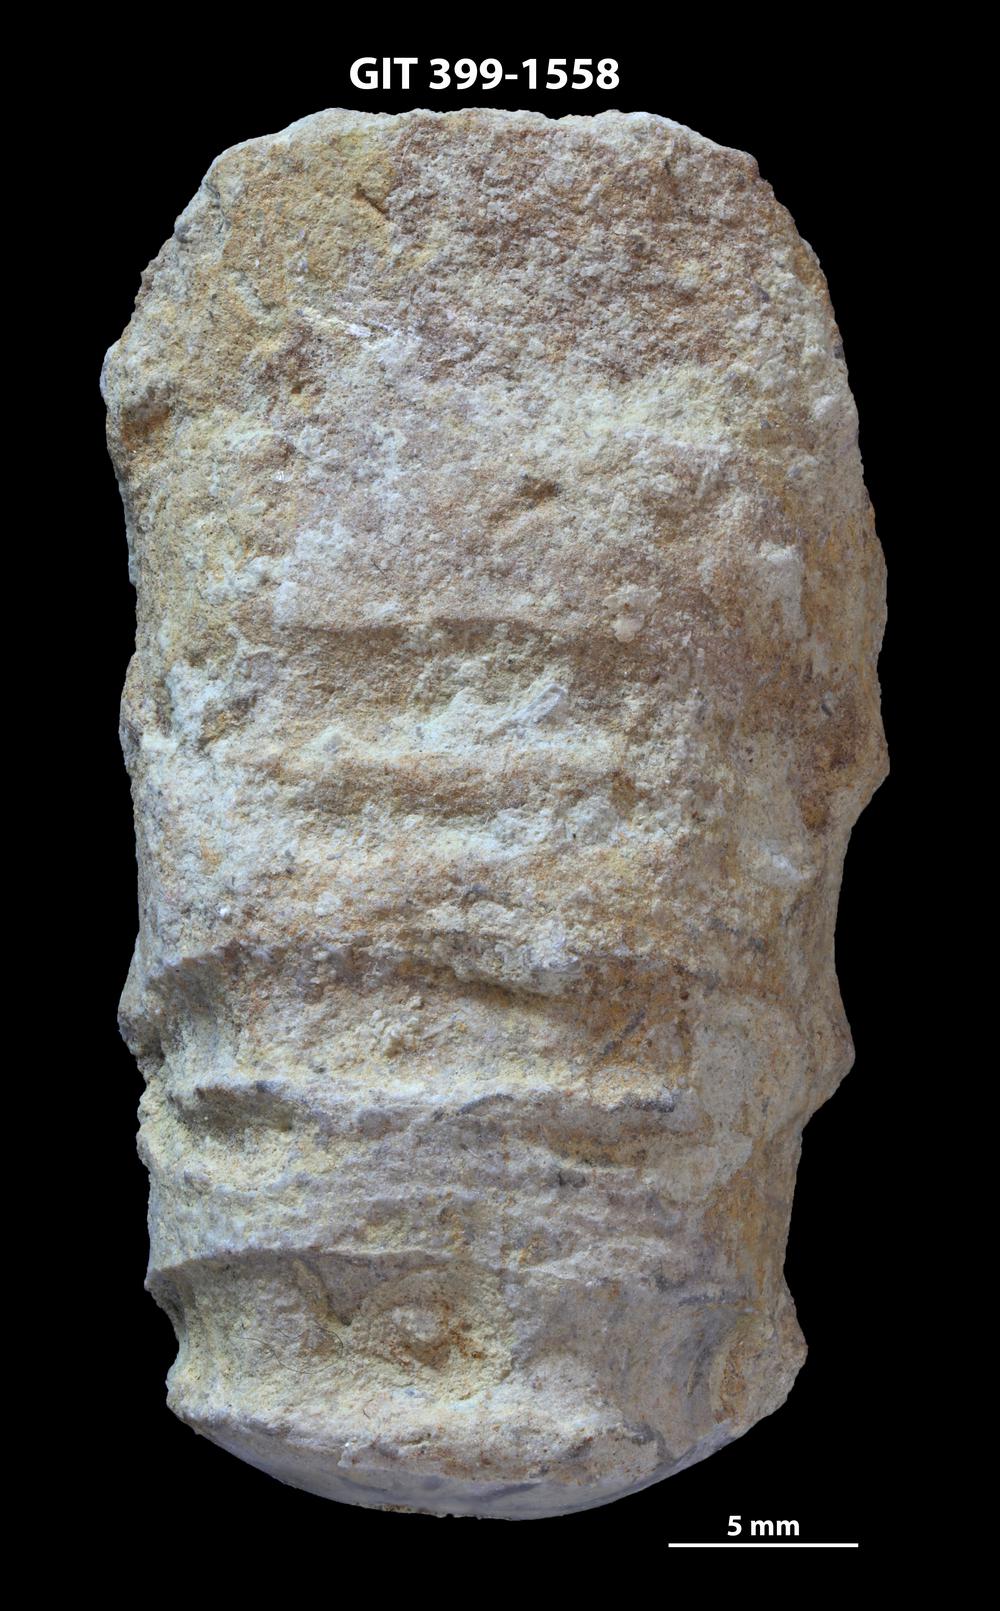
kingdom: Animalia
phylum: Mollusca
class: Cephalopoda
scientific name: Cephalopoda
